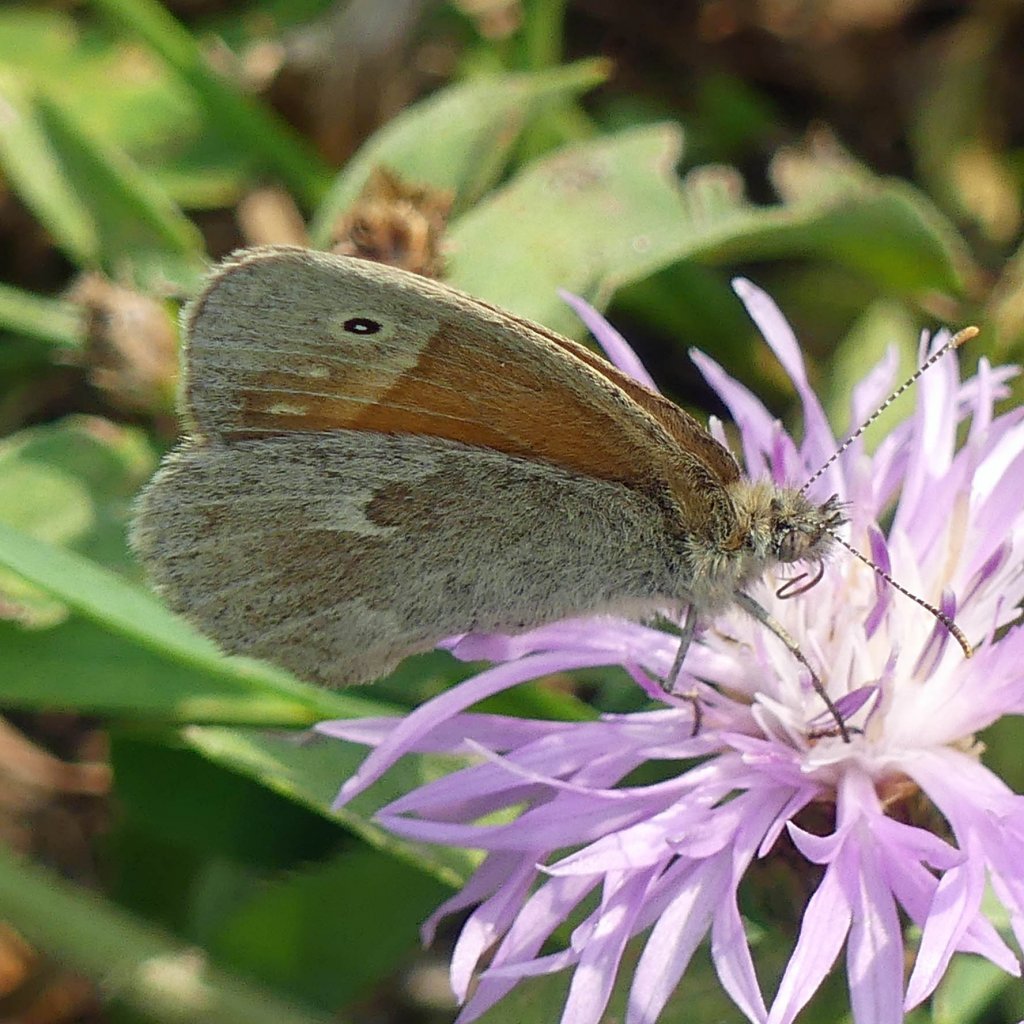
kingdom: Animalia
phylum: Arthropoda
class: Insecta
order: Lepidoptera
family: Nymphalidae
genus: Coenonympha
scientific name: Coenonympha tullia
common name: Large Heath
